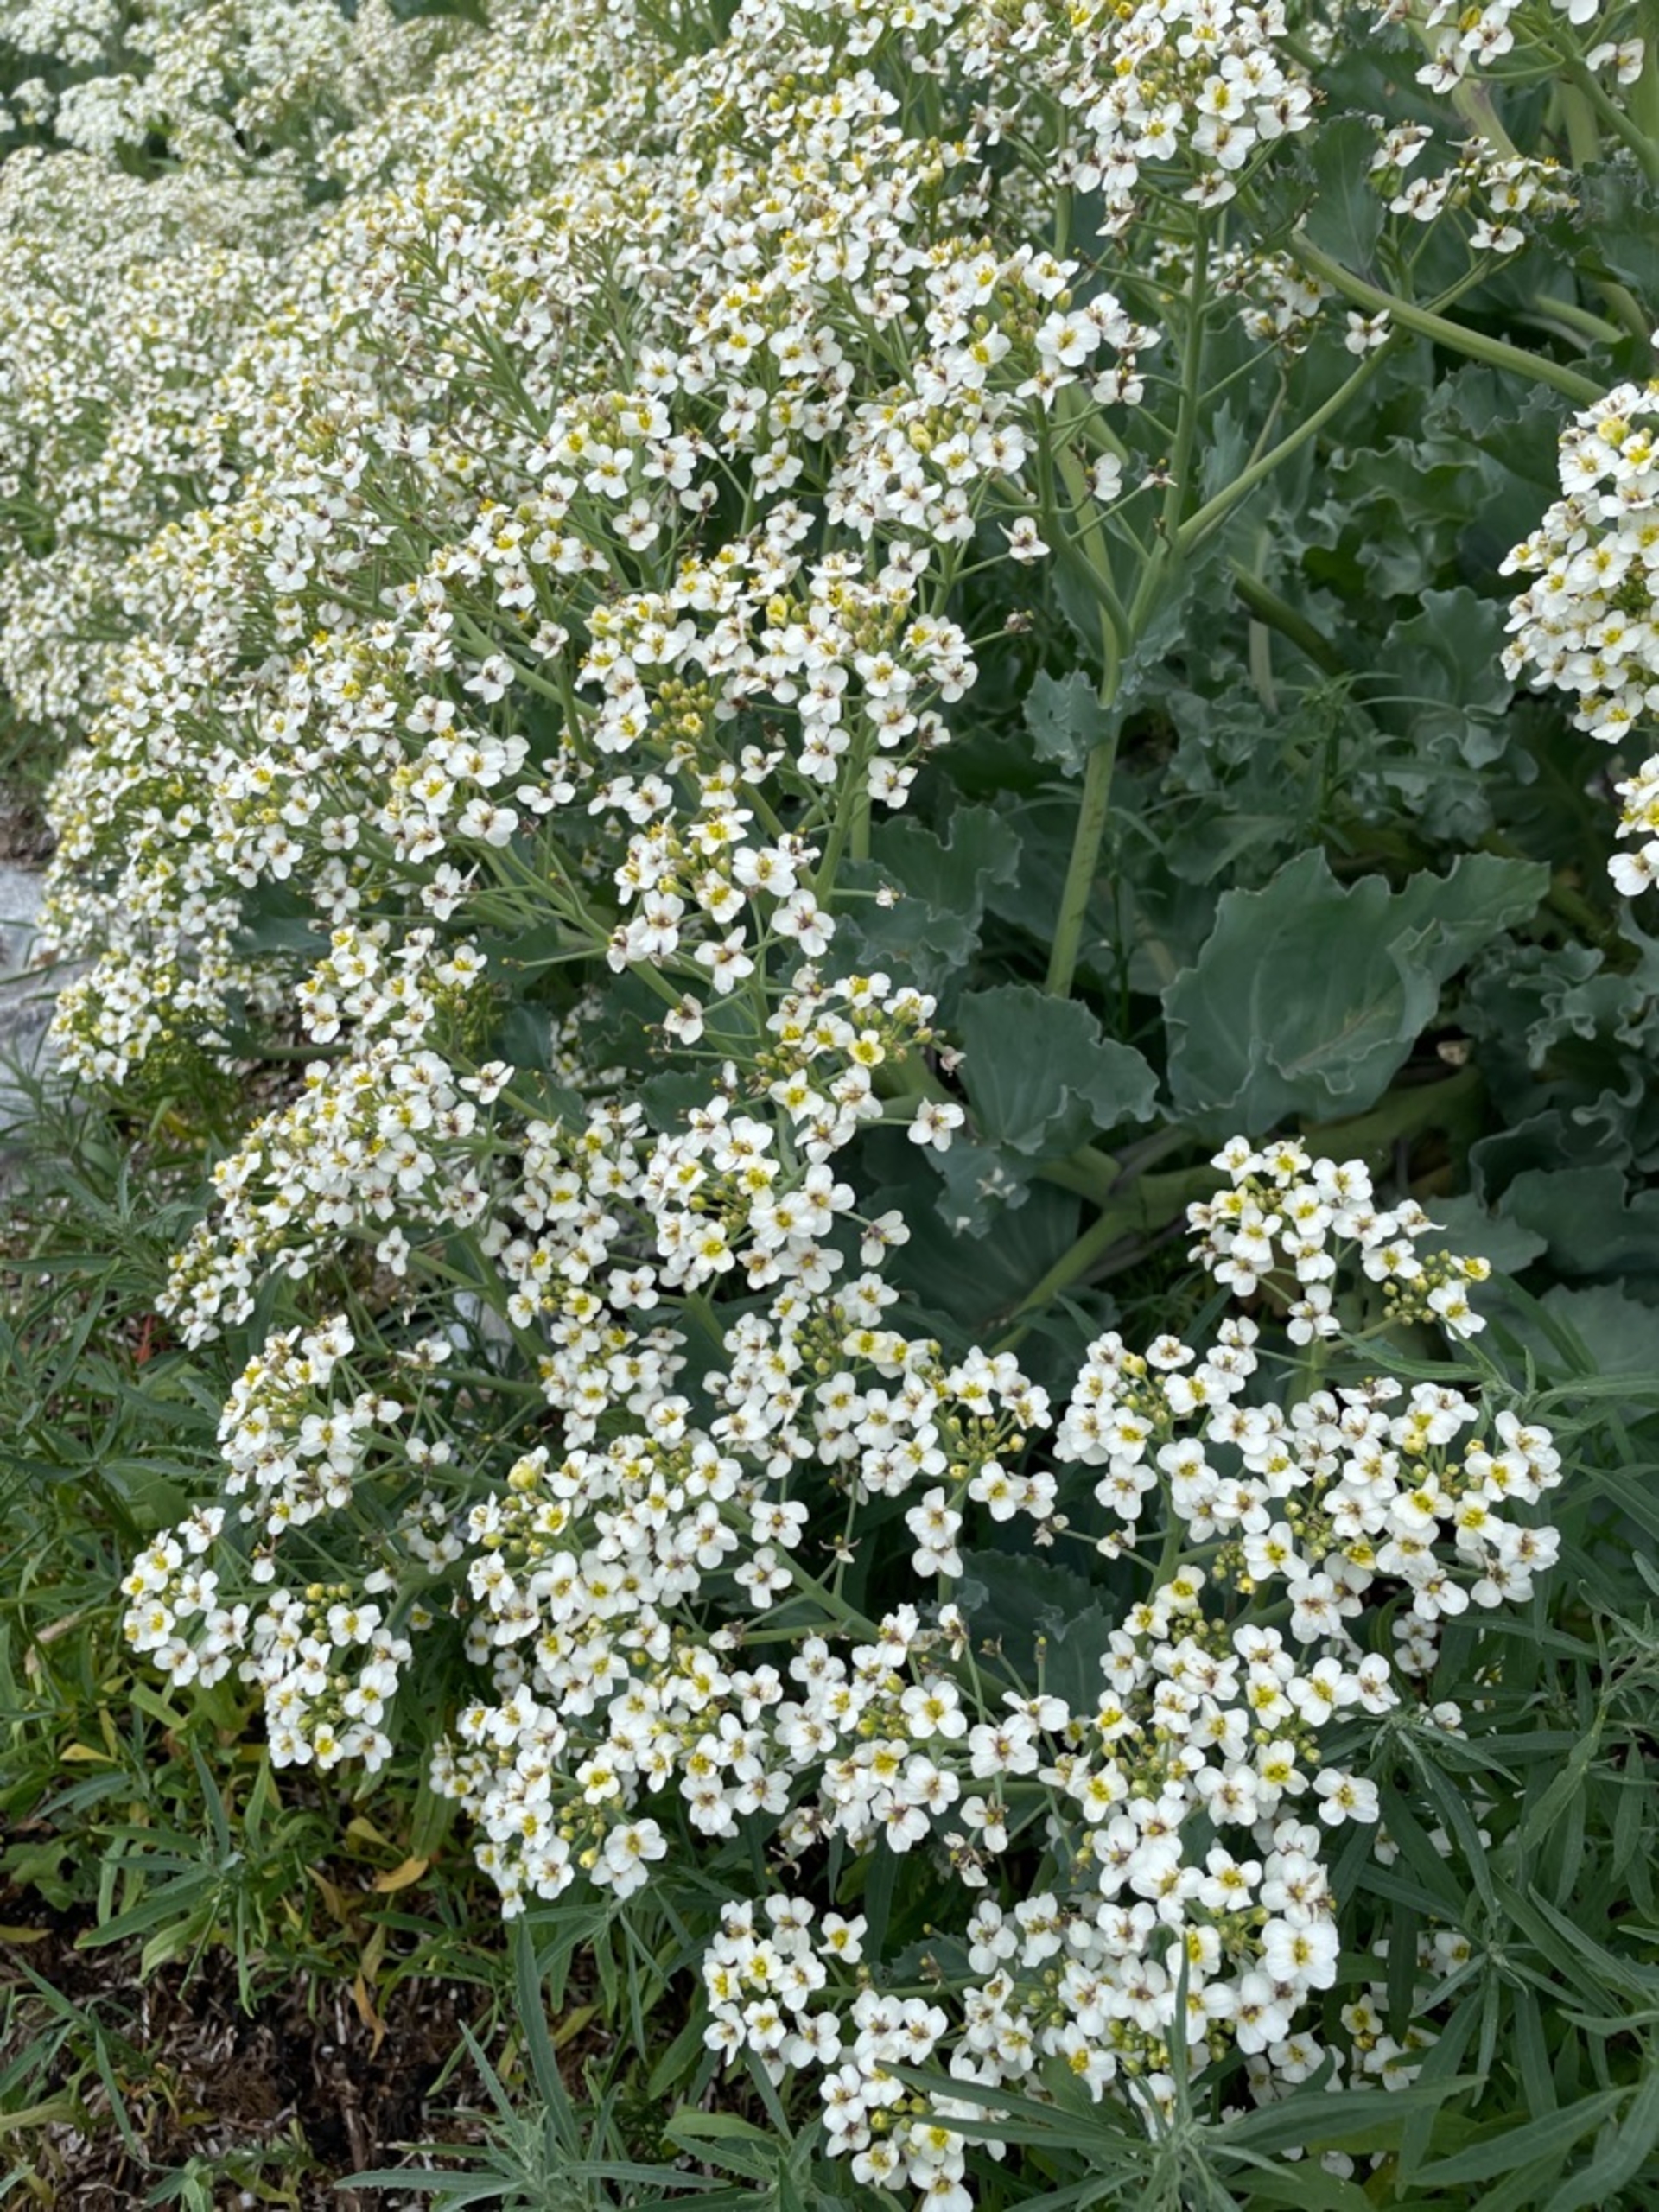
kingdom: Plantae
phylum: Tracheophyta
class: Magnoliopsida
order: Brassicales
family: Brassicaceae
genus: Crambe
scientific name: Crambe maritima
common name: Strandkål
